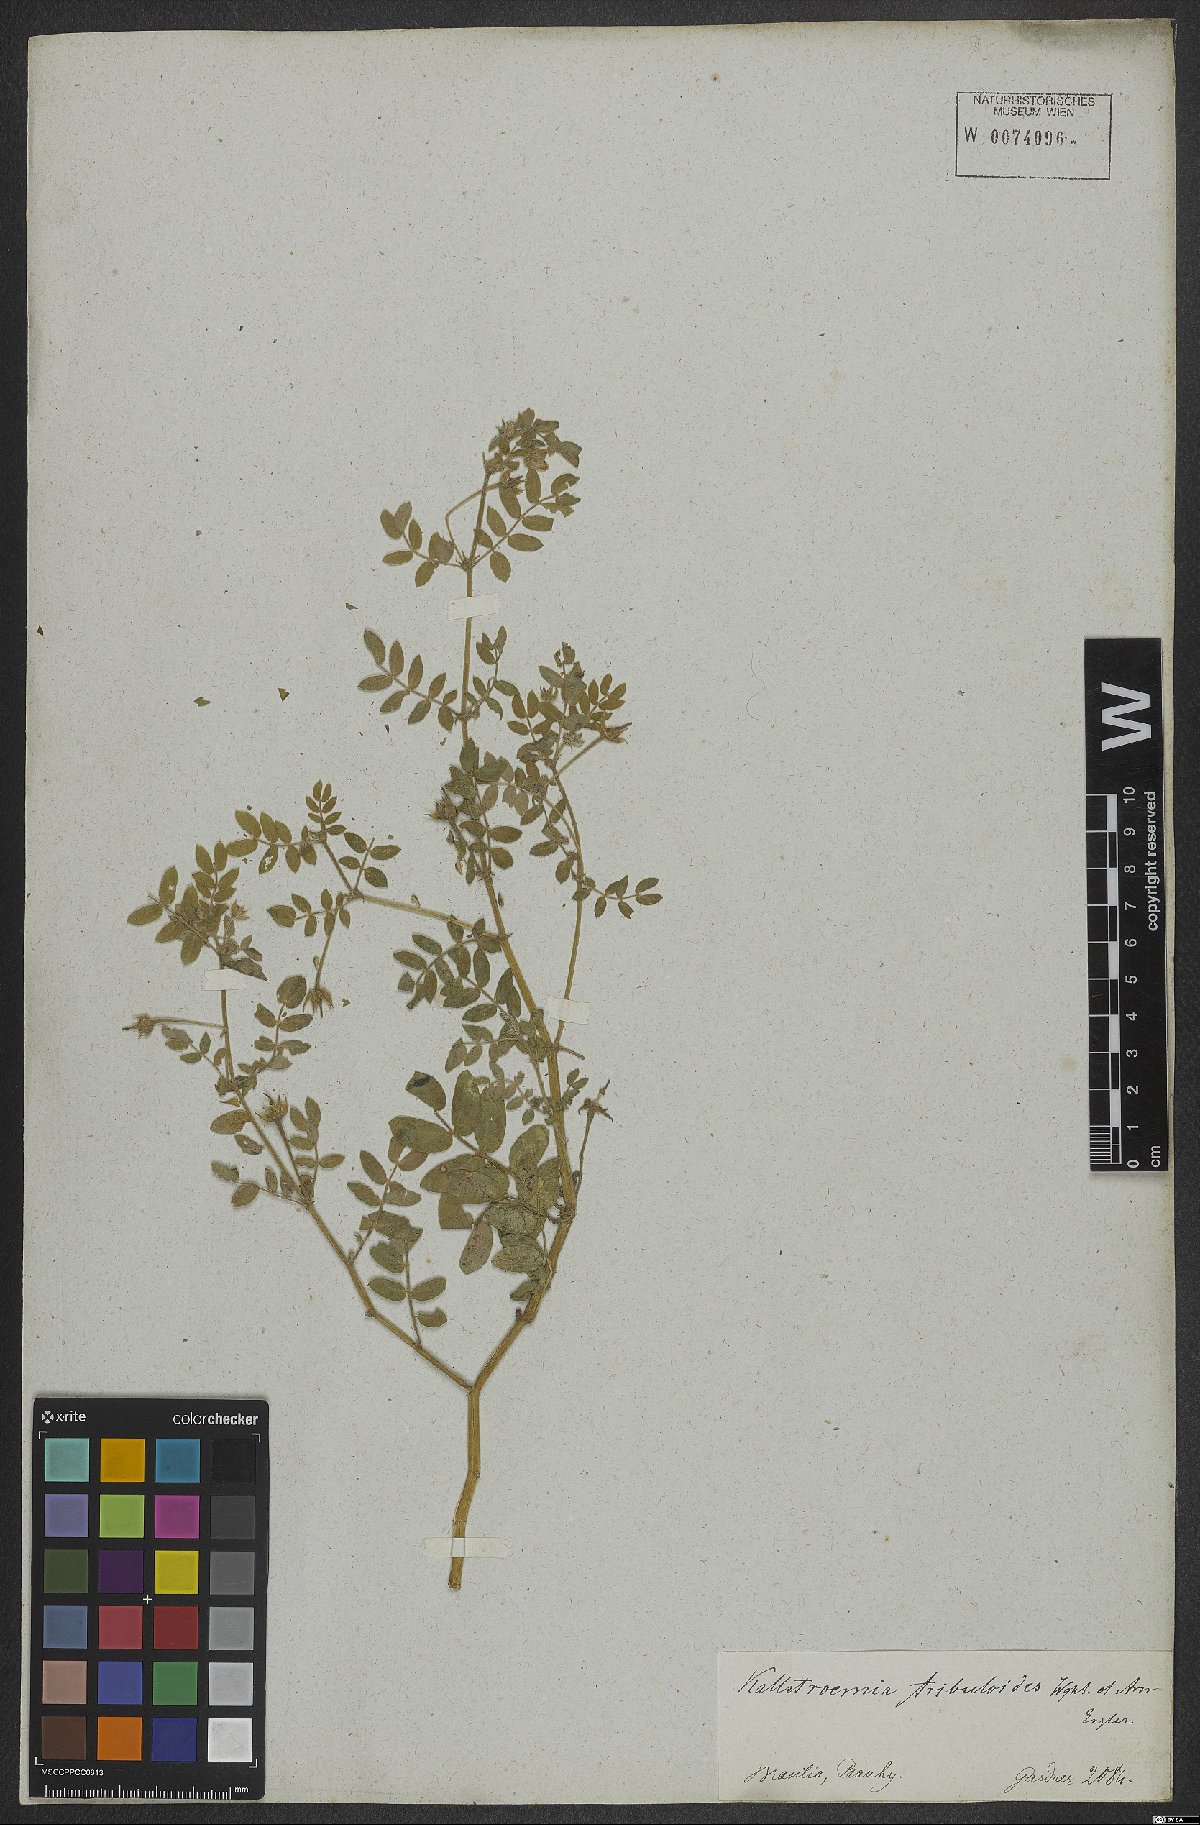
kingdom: Plantae
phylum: Tracheophyta
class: Magnoliopsida
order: Zygophyllales
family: Zygophyllaceae
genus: Kallstroemia
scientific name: Kallstroemia maxima
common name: Big caltropa
